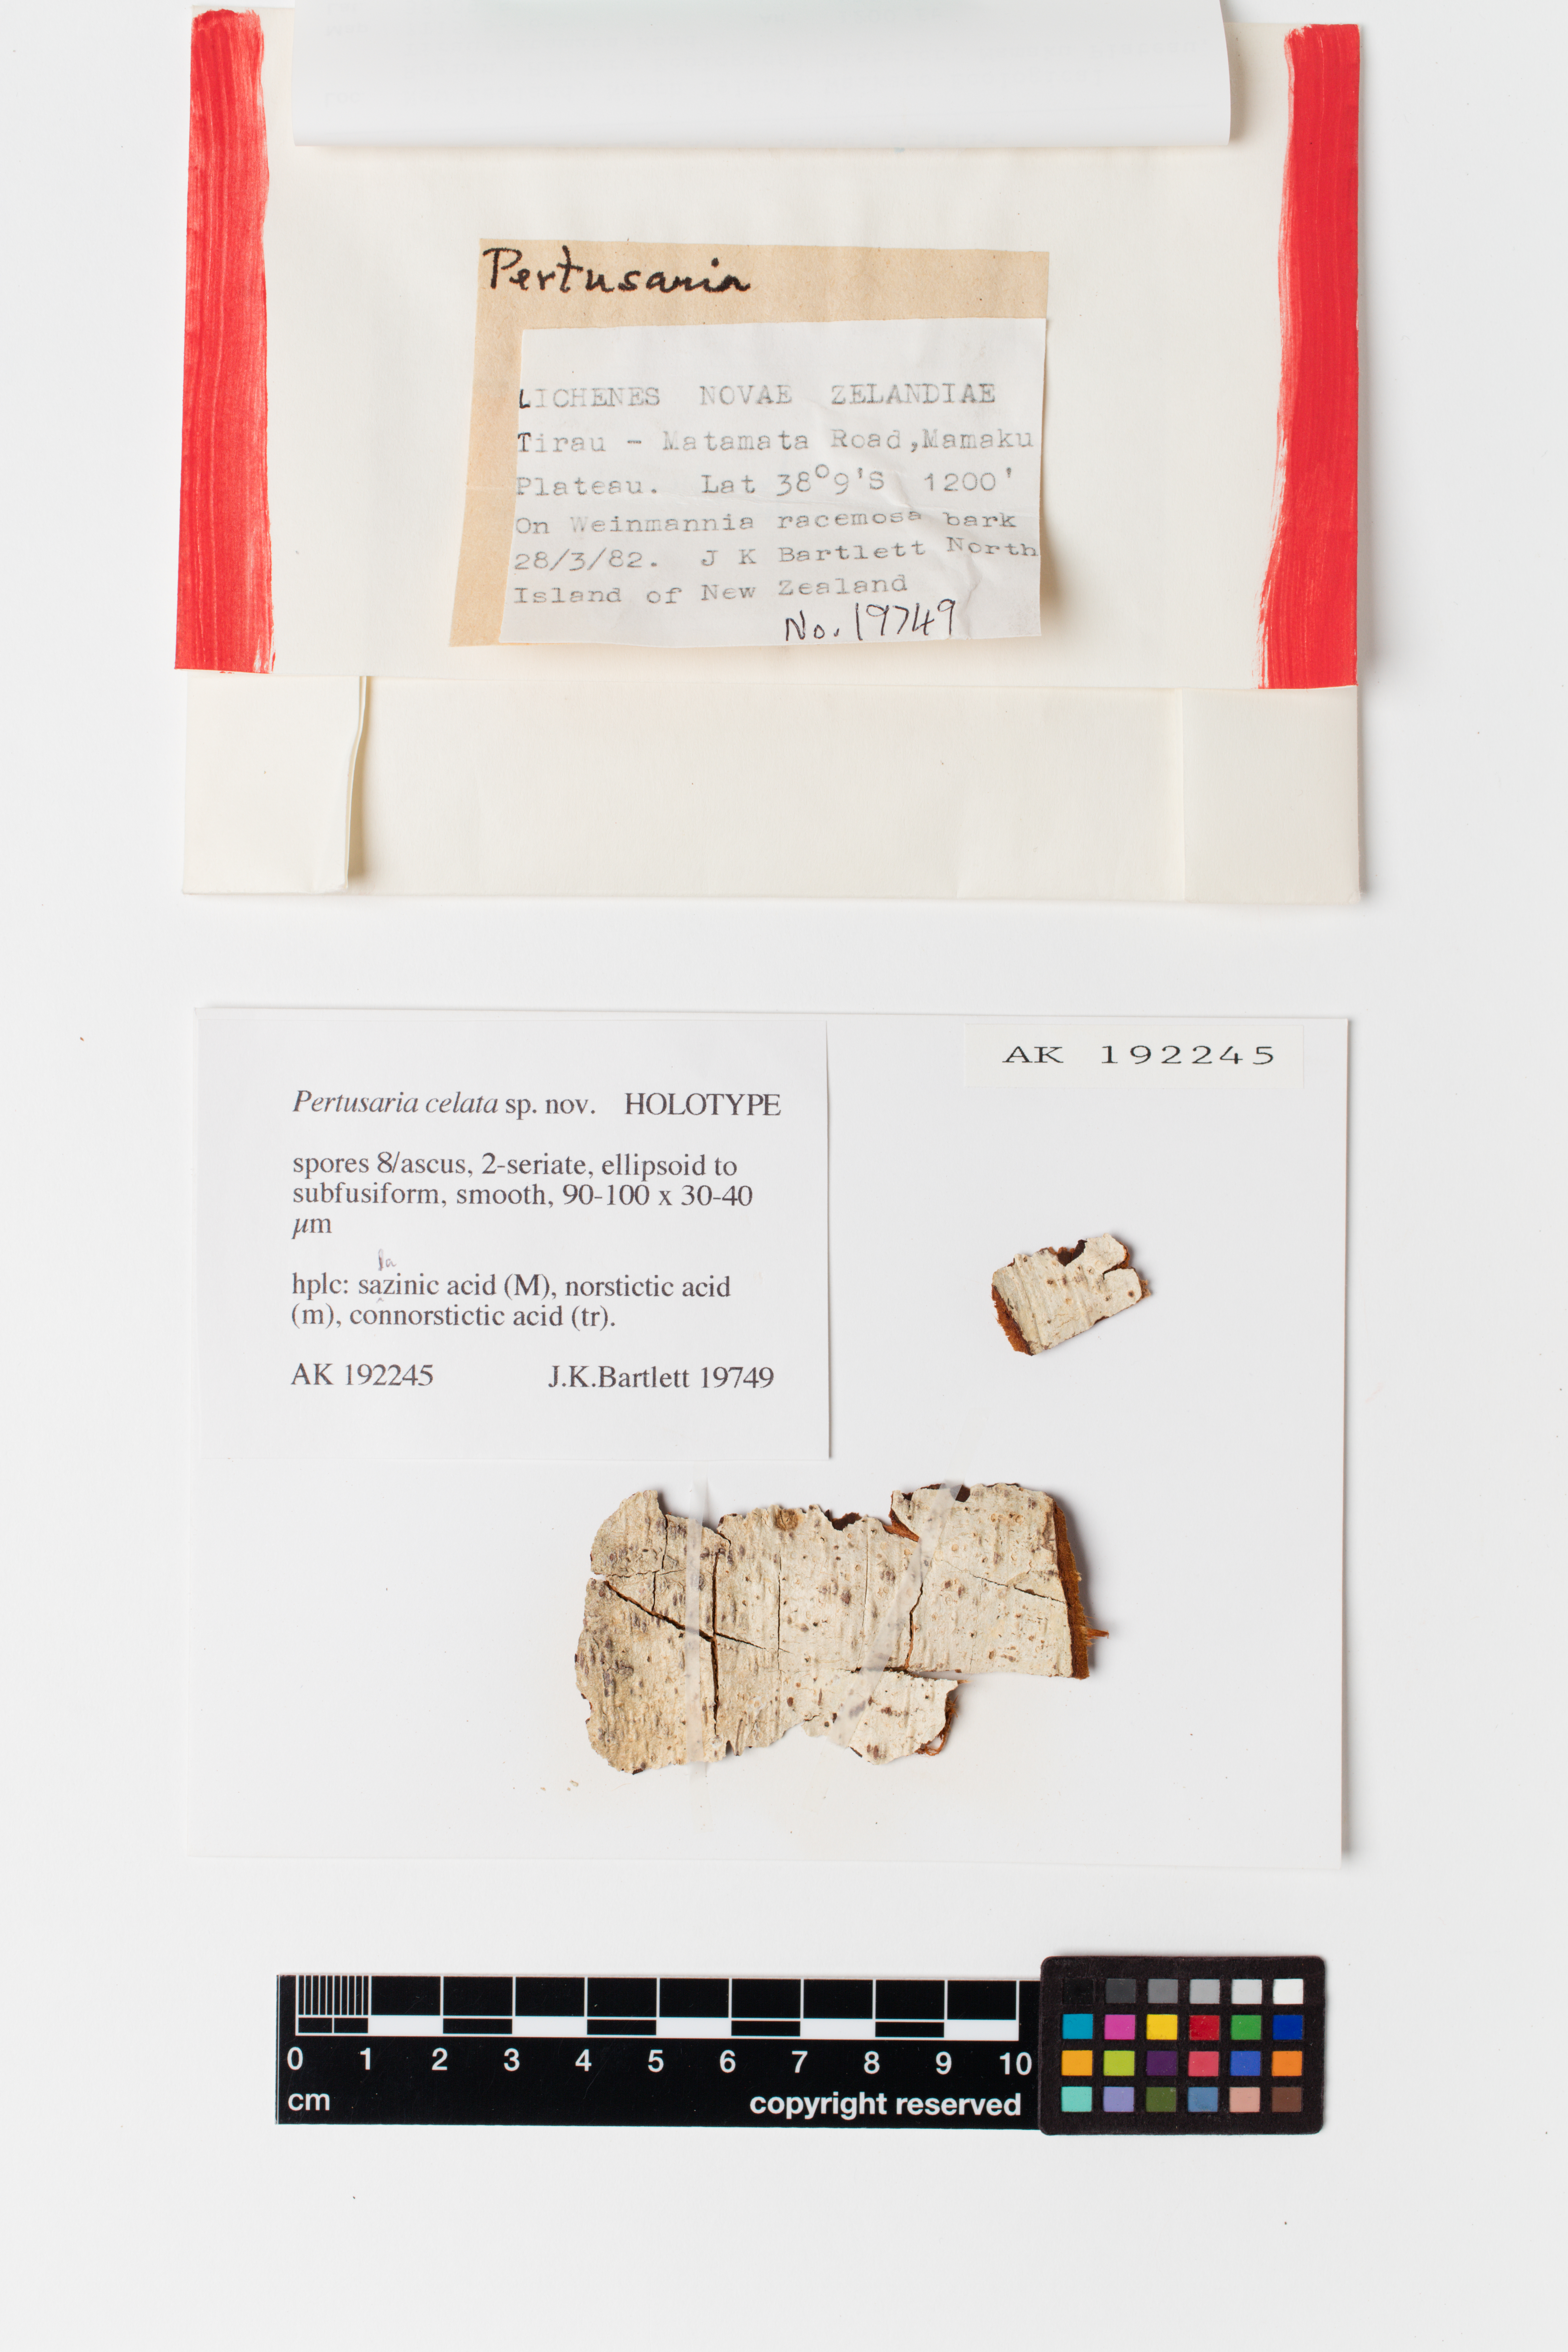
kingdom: Fungi
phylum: Ascomycota
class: Lecanoromycetes
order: Pertusariales
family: Pertusariaceae
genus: Pertusaria
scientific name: Pertusaria celata
